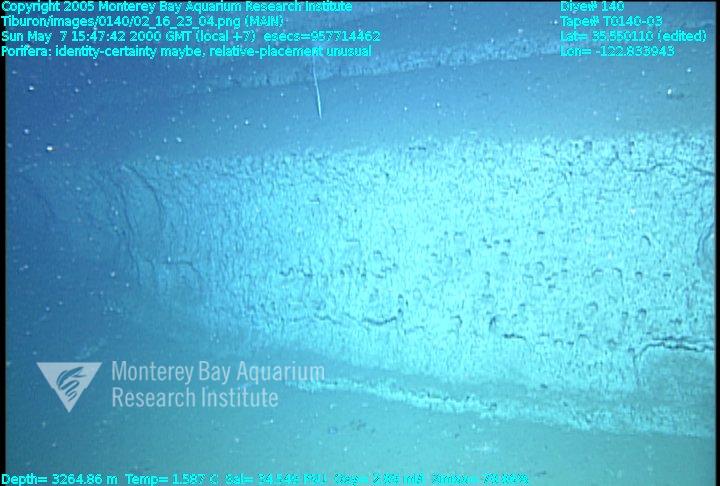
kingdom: Animalia
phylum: Porifera
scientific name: Porifera
